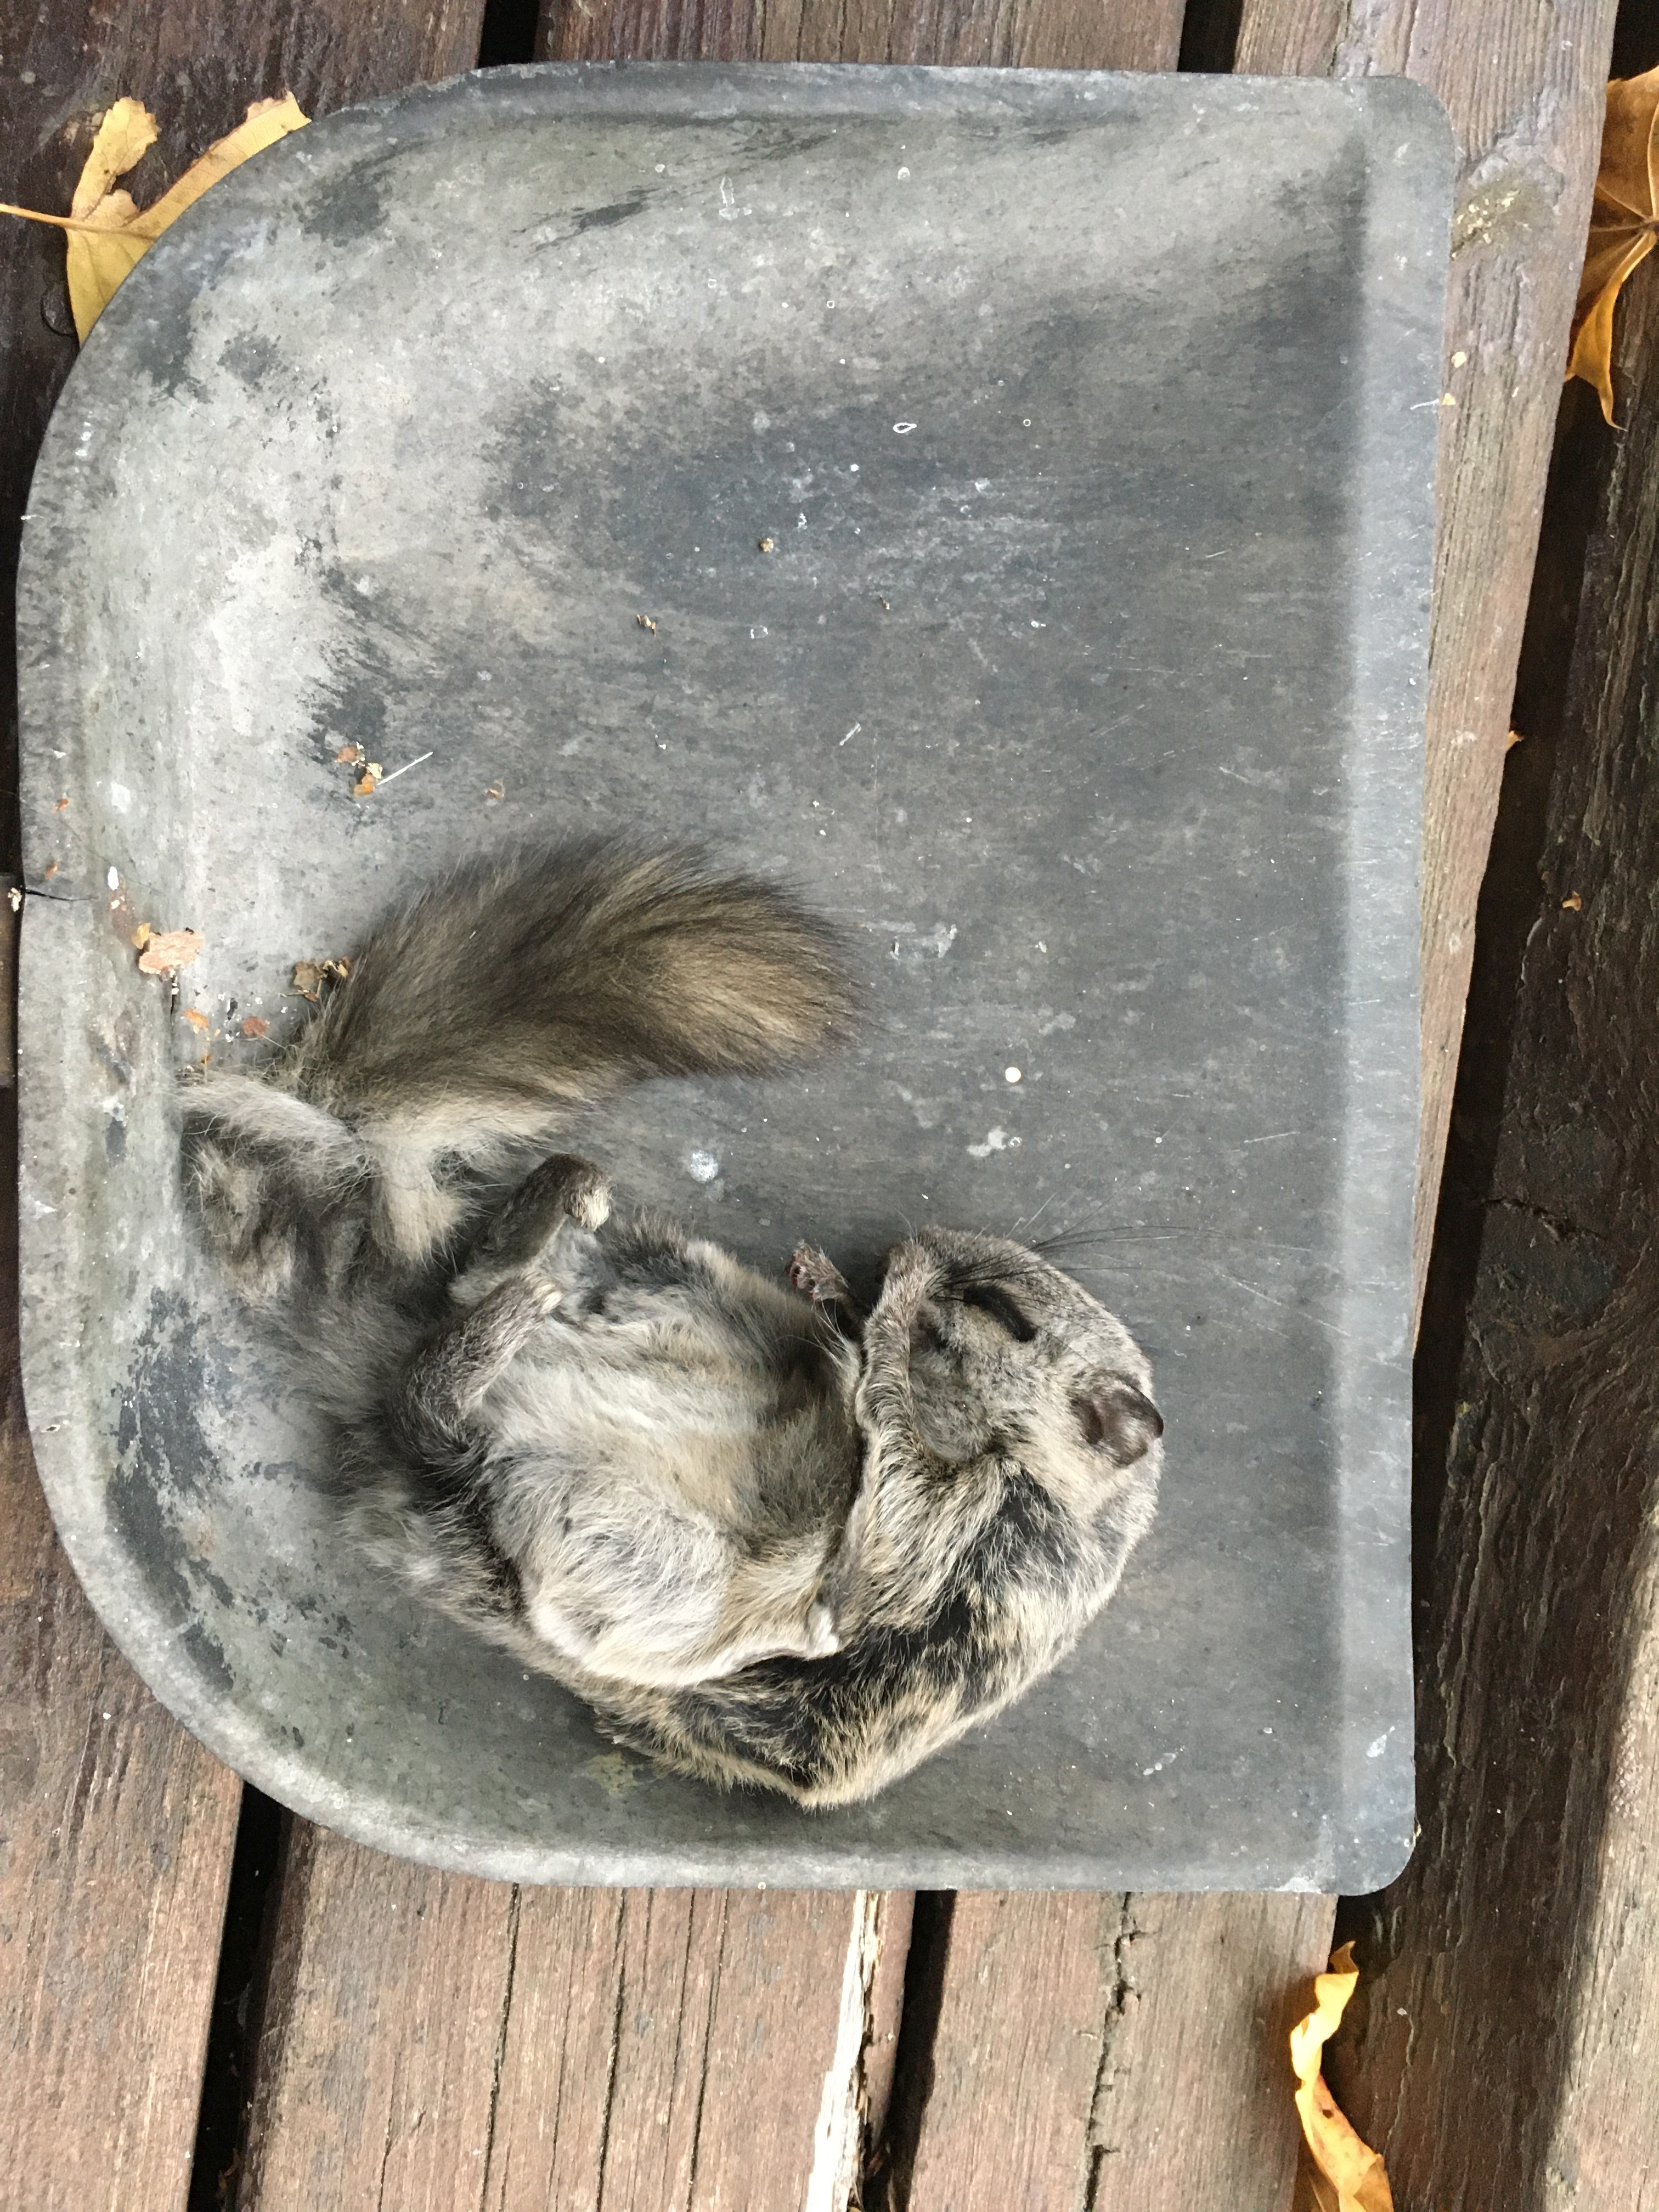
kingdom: Animalia
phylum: Chordata
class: Mammalia
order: Rodentia
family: Sciuridae
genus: Pteromys
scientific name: Pteromys volans
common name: Siberian flying squirrel
